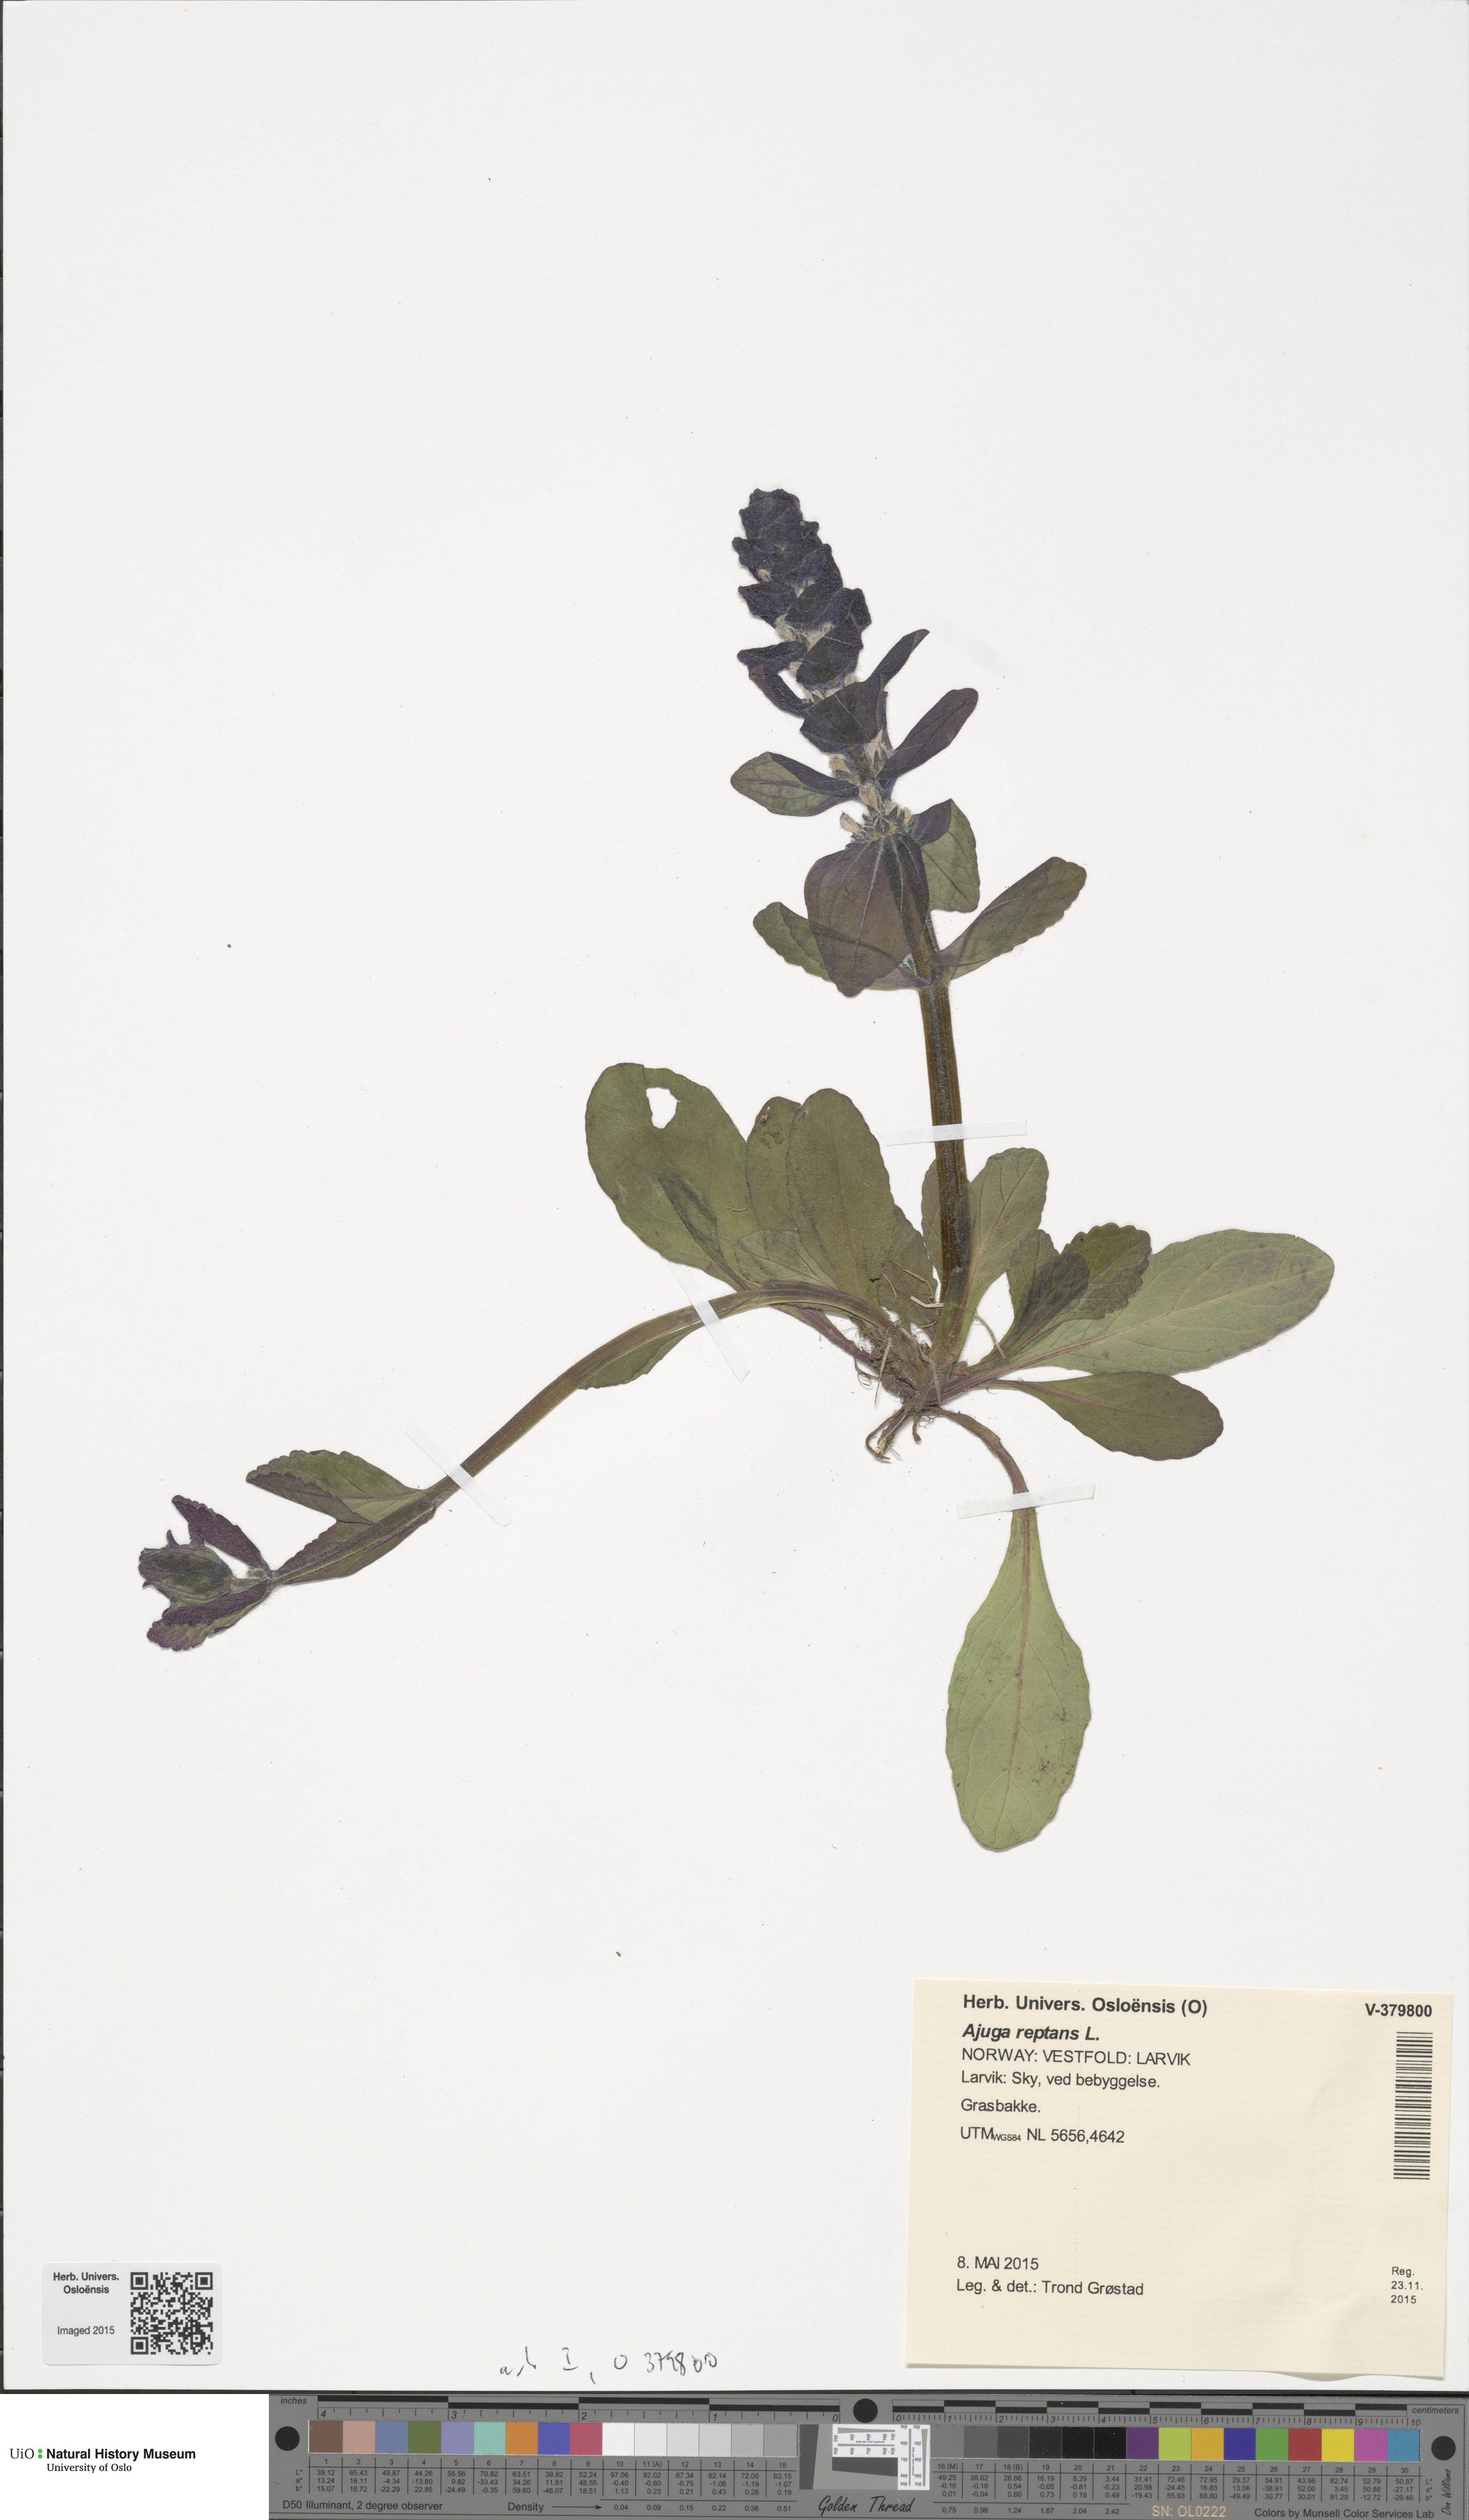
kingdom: Plantae
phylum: Tracheophyta
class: Magnoliopsida
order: Lamiales
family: Lamiaceae
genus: Ajuga
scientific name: Ajuga reptans
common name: Bugle
